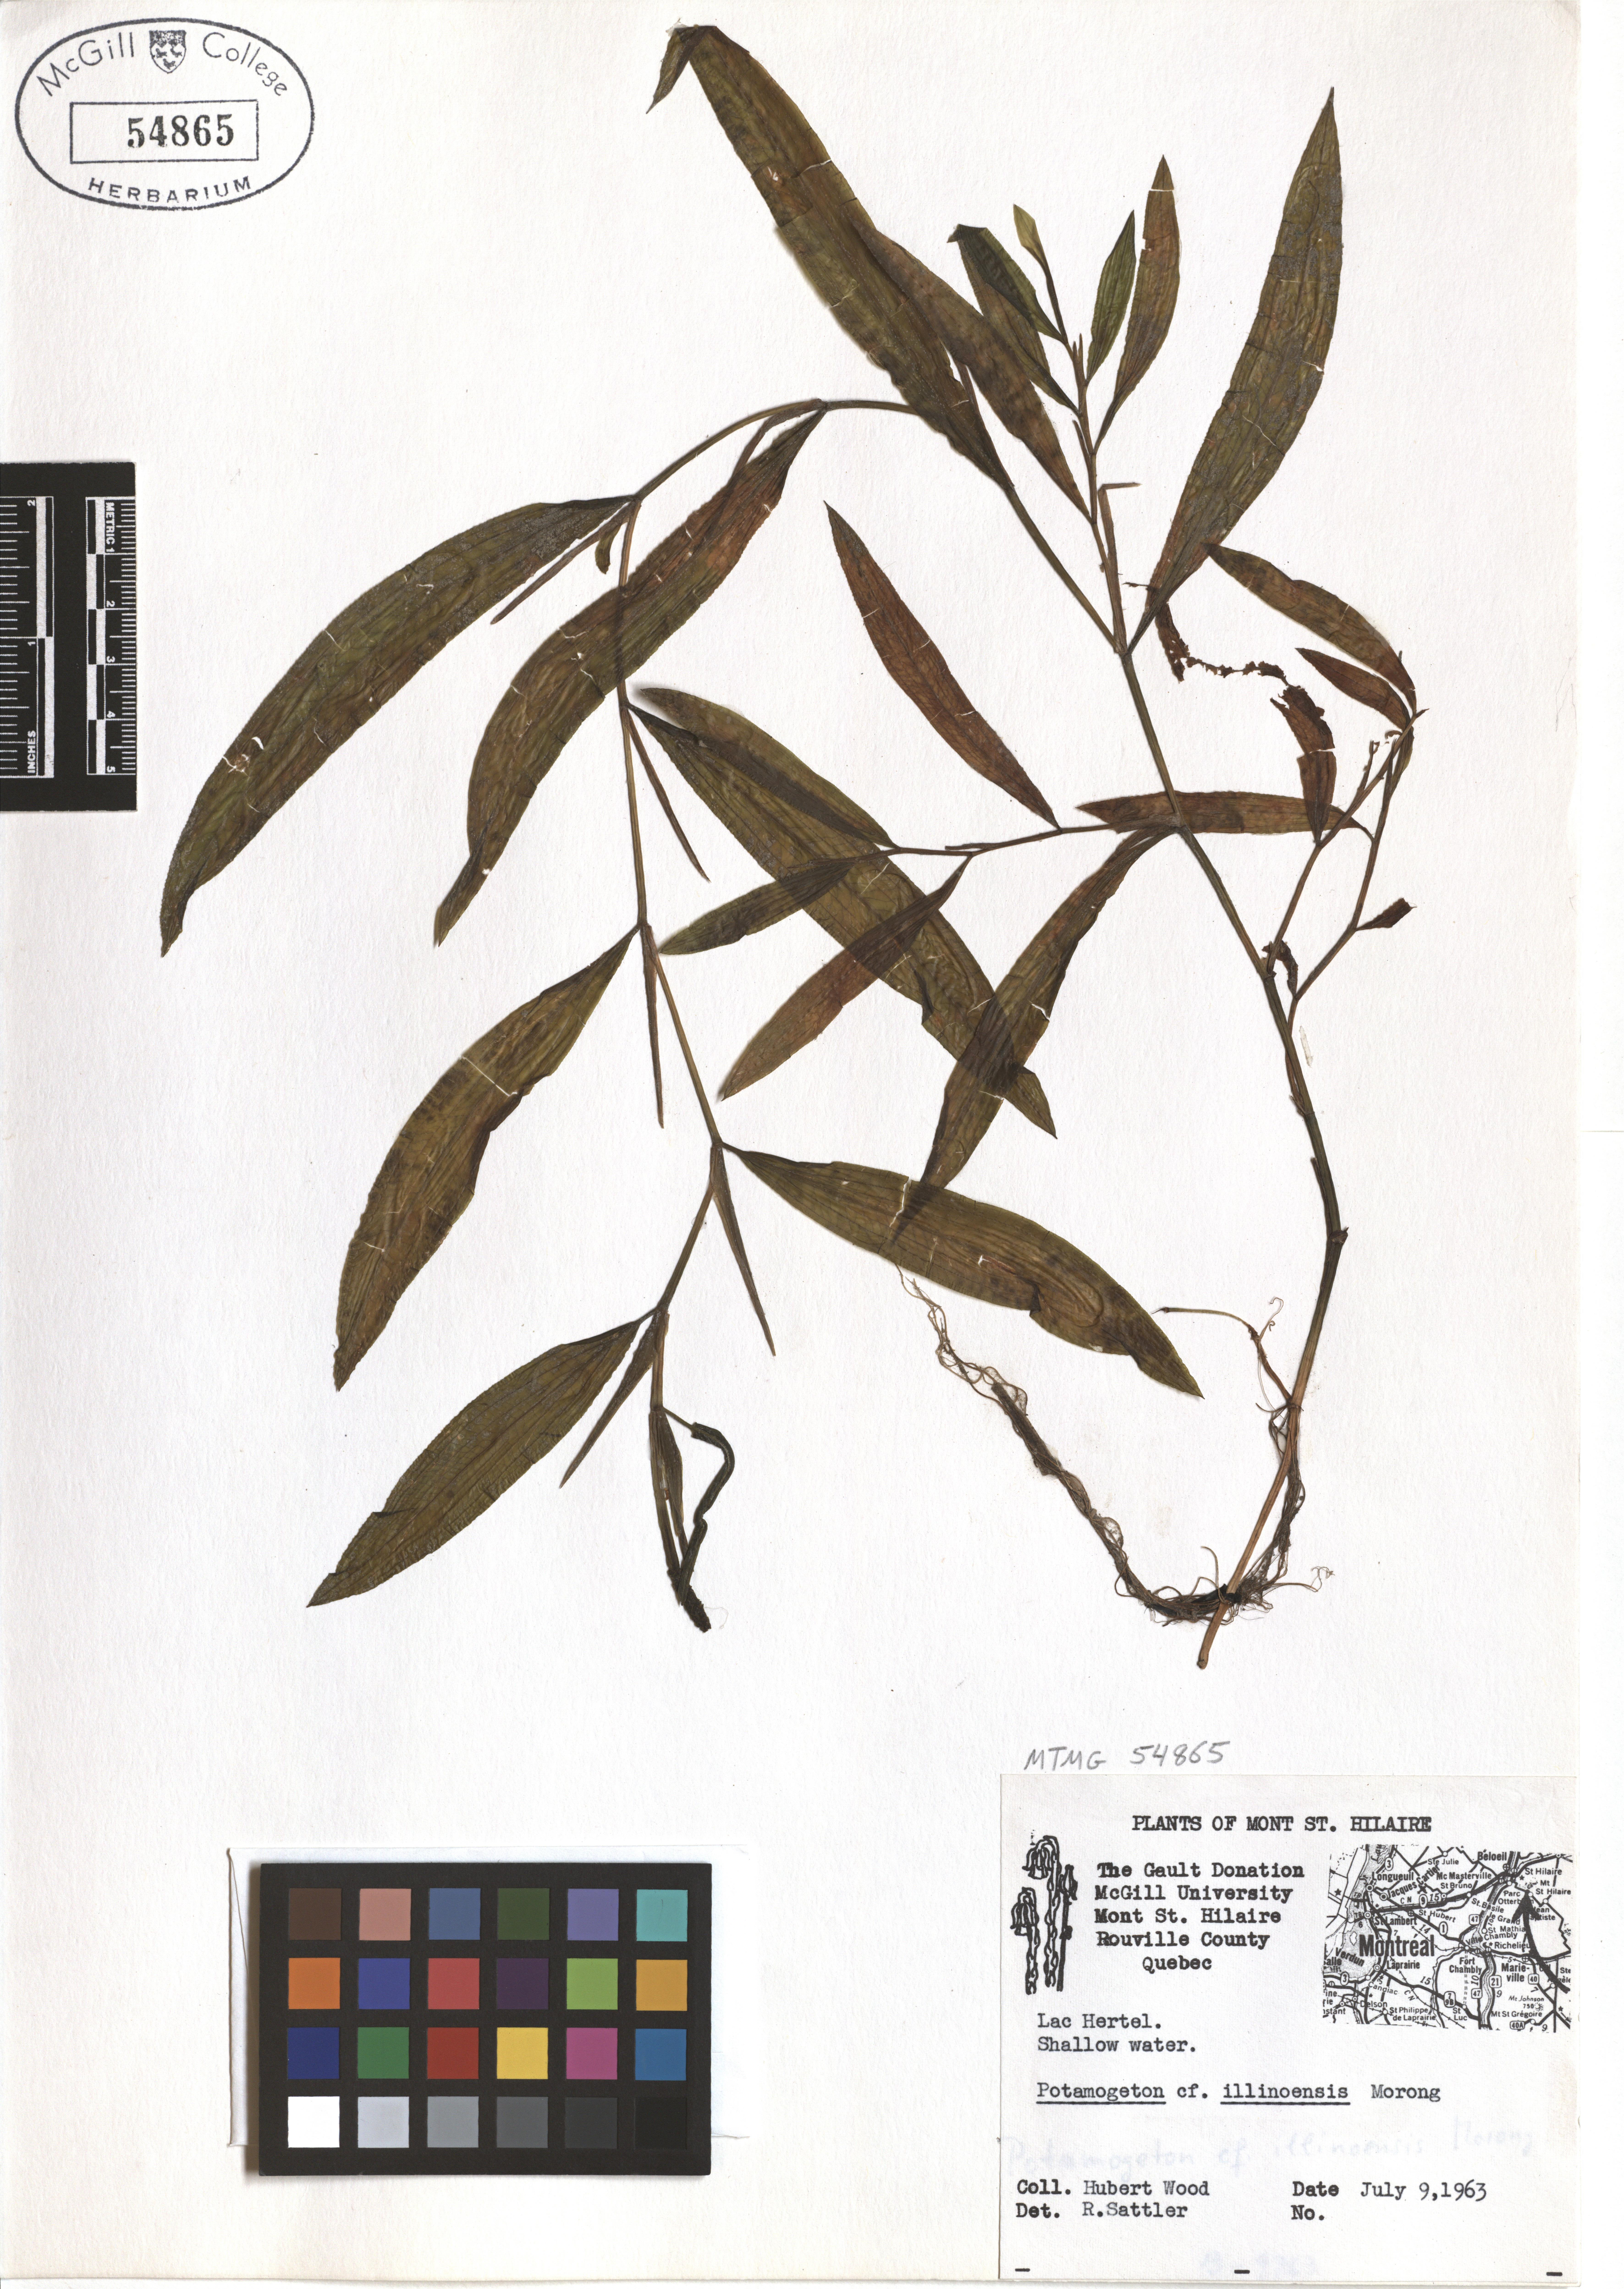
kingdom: Plantae
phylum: Tracheophyta
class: Liliopsida
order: Alismatales
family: Potamogetonaceae
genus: Potamogeton
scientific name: Potamogeton illinoensis
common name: Illinois pondweed
